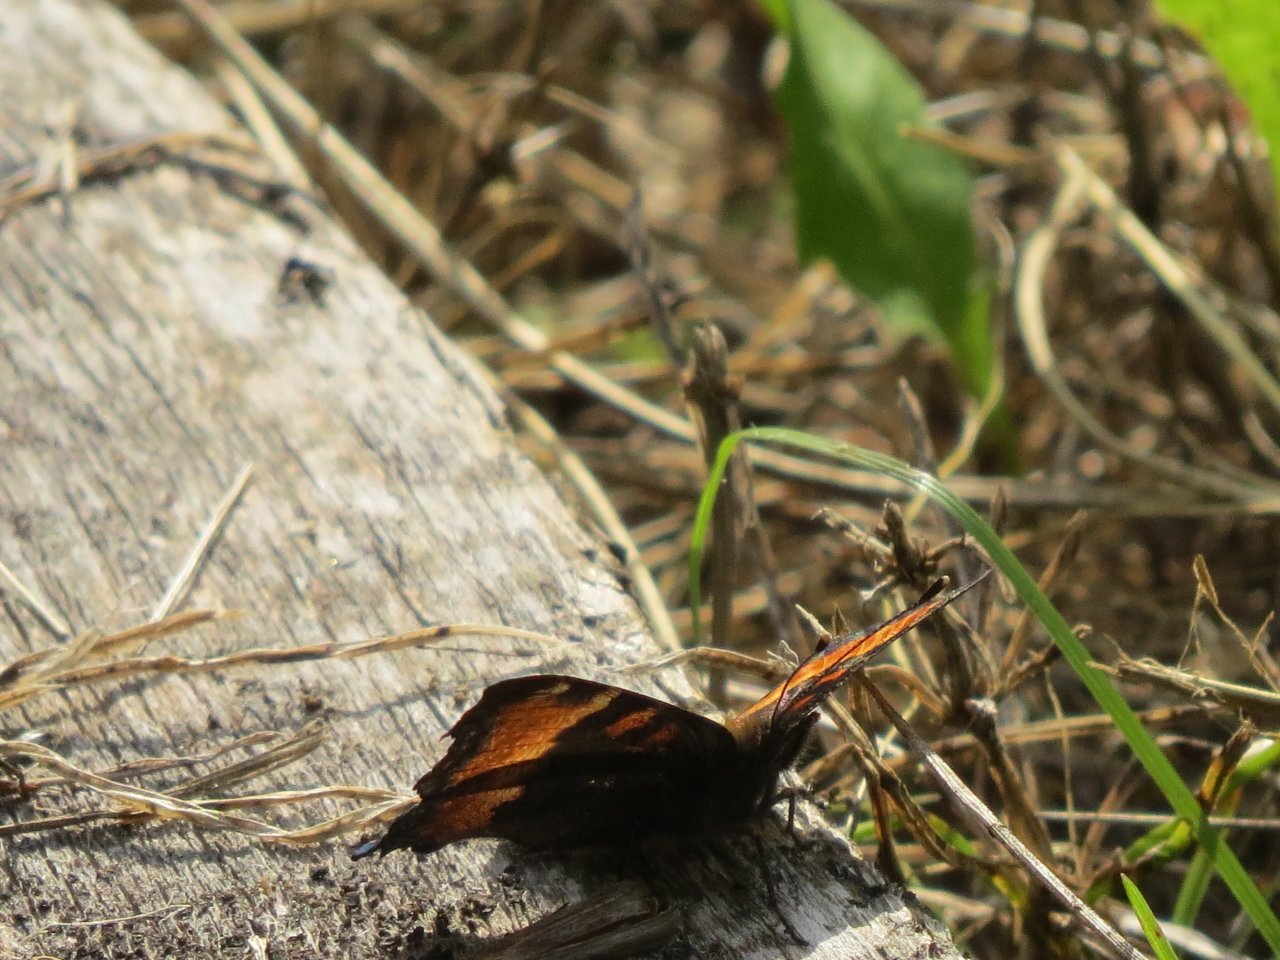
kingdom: Animalia
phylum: Arthropoda
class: Insecta
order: Lepidoptera
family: Nymphalidae
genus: Aglais
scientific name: Aglais milberti
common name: Milbert's Tortoiseshell
